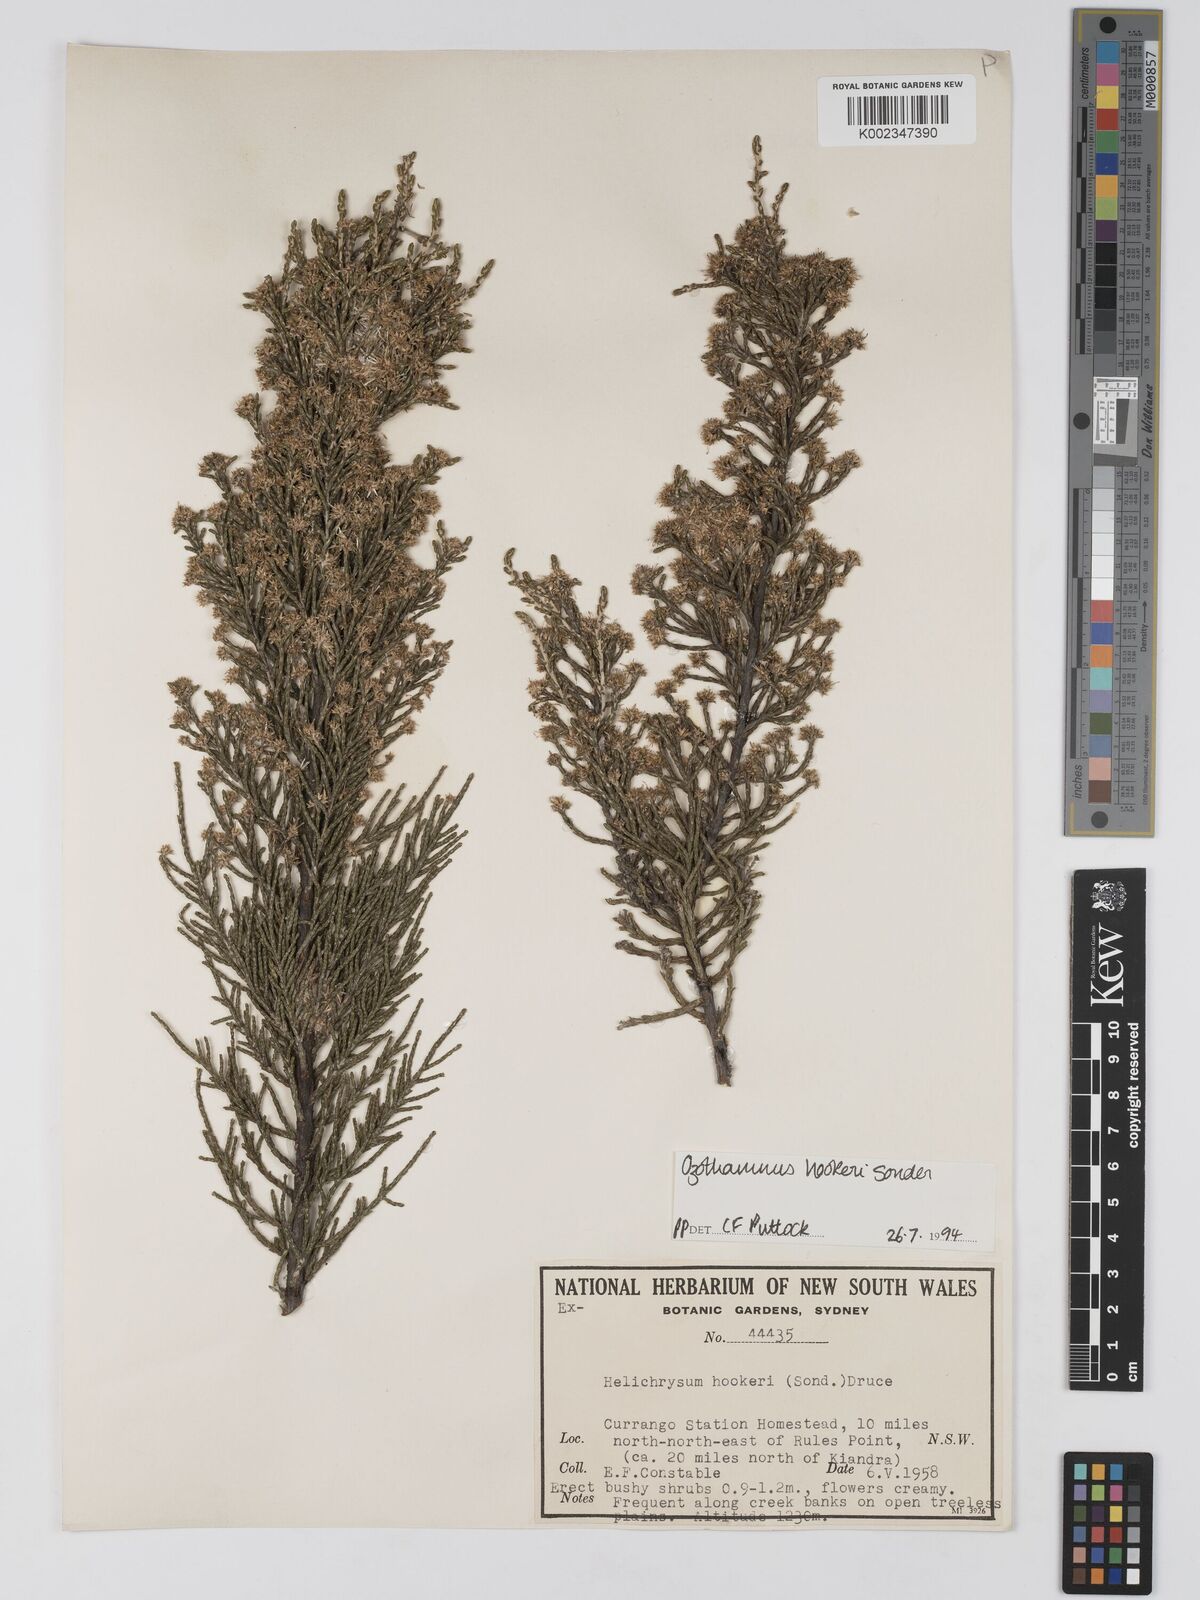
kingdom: Plantae
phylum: Tracheophyta
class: Magnoliopsida
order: Asterales
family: Asteraceae
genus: Ozothamnus
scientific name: Ozothamnus
